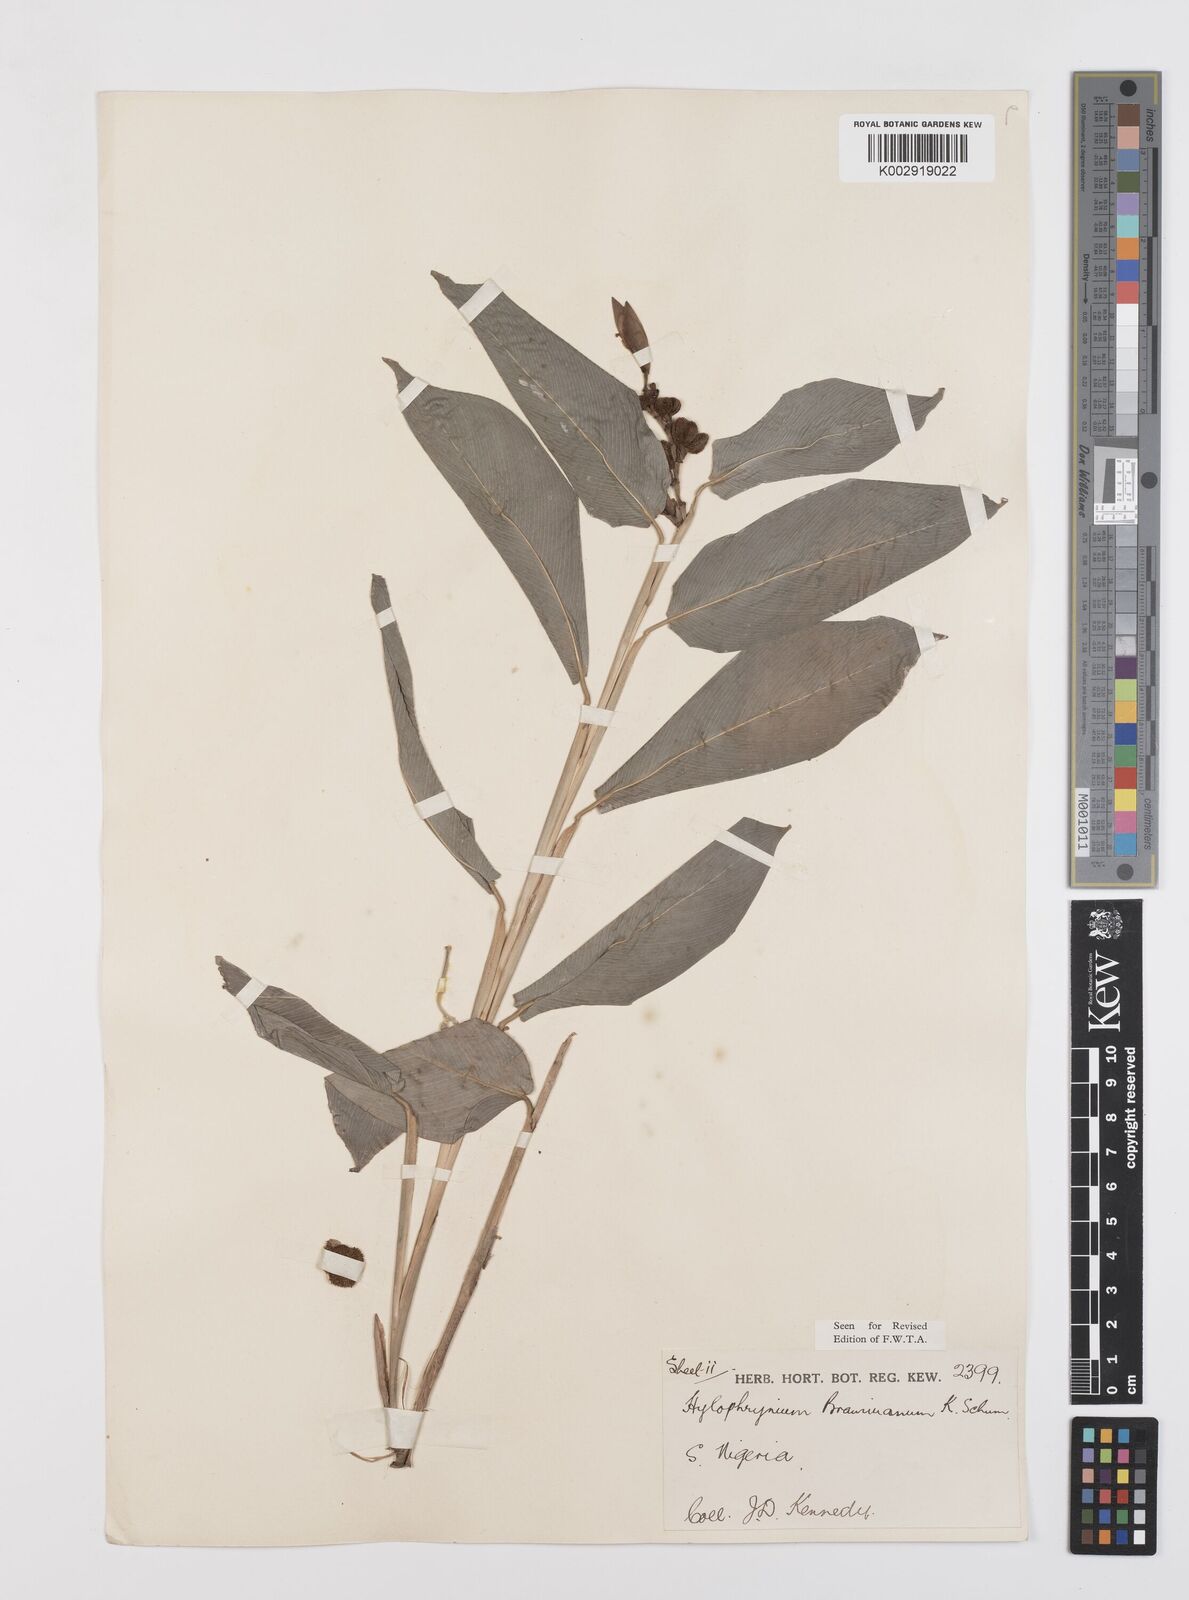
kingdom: Plantae
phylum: Tracheophyta
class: Liliopsida
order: Zingiberales
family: Marantaceae
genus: Trachyphrynium
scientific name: Trachyphrynium braunianum
